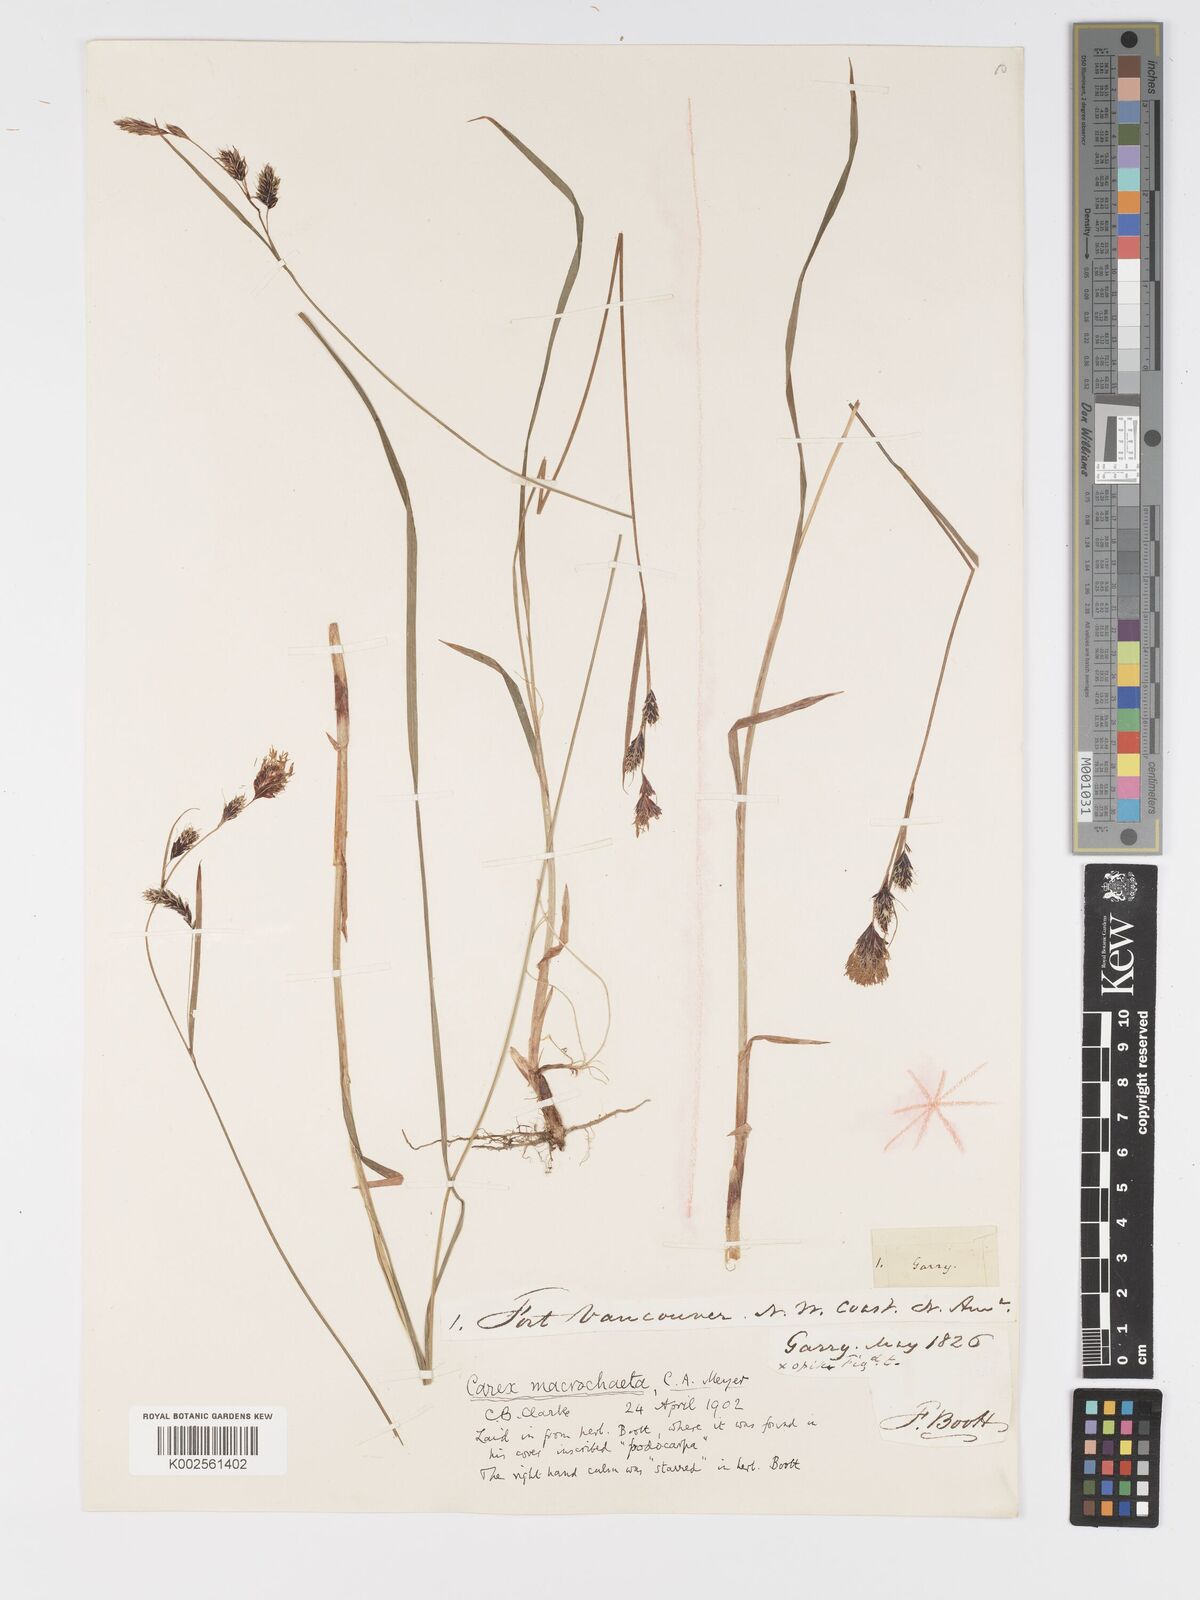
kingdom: Plantae
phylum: Tracheophyta
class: Liliopsida
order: Poales
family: Cyperaceae
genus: Carex
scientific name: Carex macrochaeta
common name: Alaska large awn sedge
